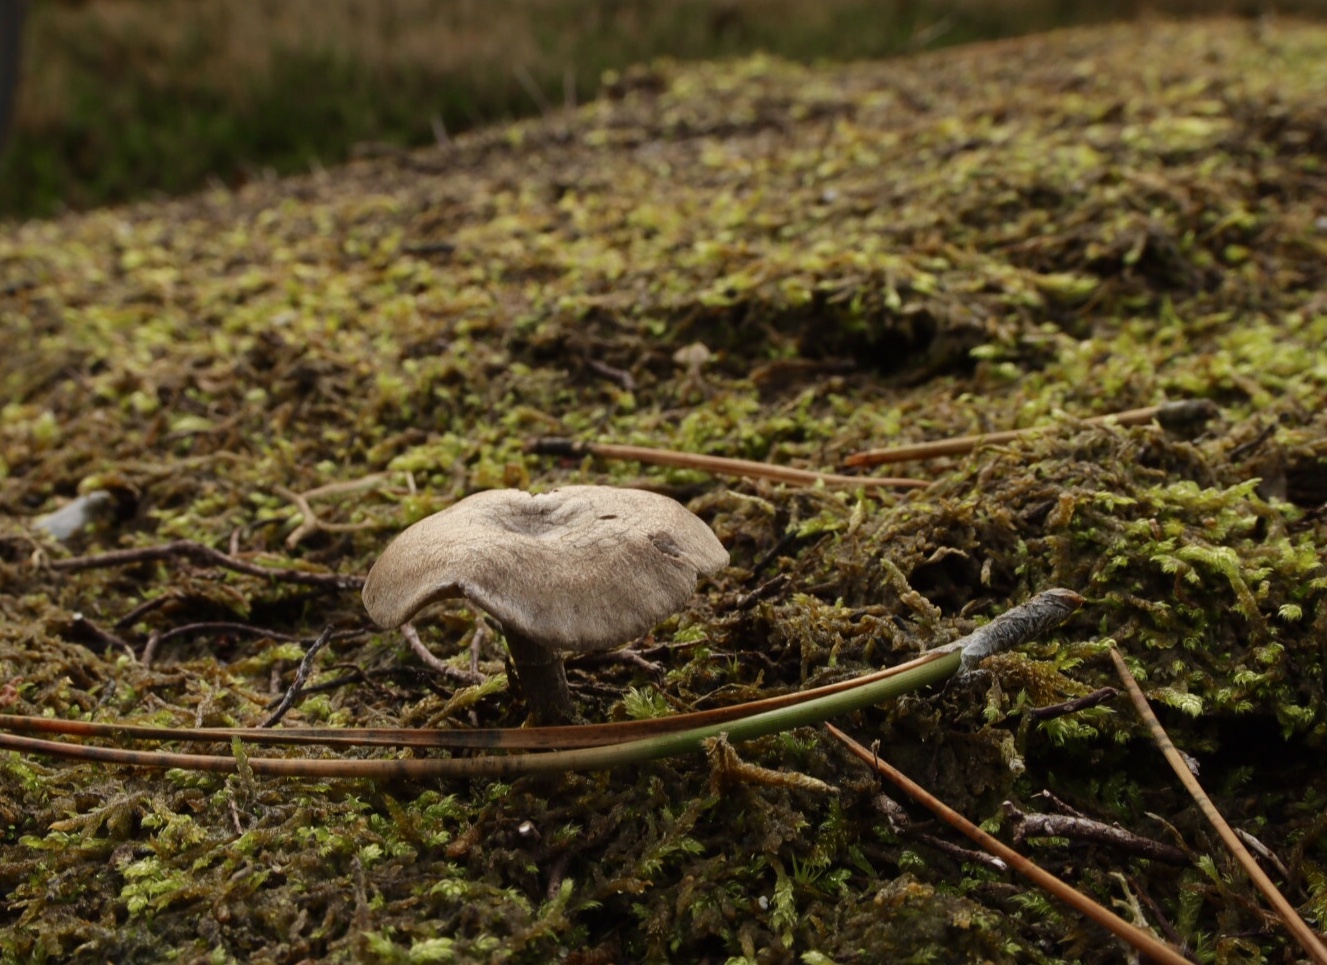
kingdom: Fungi
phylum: Basidiomycota
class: Agaricomycetes
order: Agaricales
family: Entolomataceae
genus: Clitopilus
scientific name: Clitopilus caelatus
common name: gråbrun troldhat
